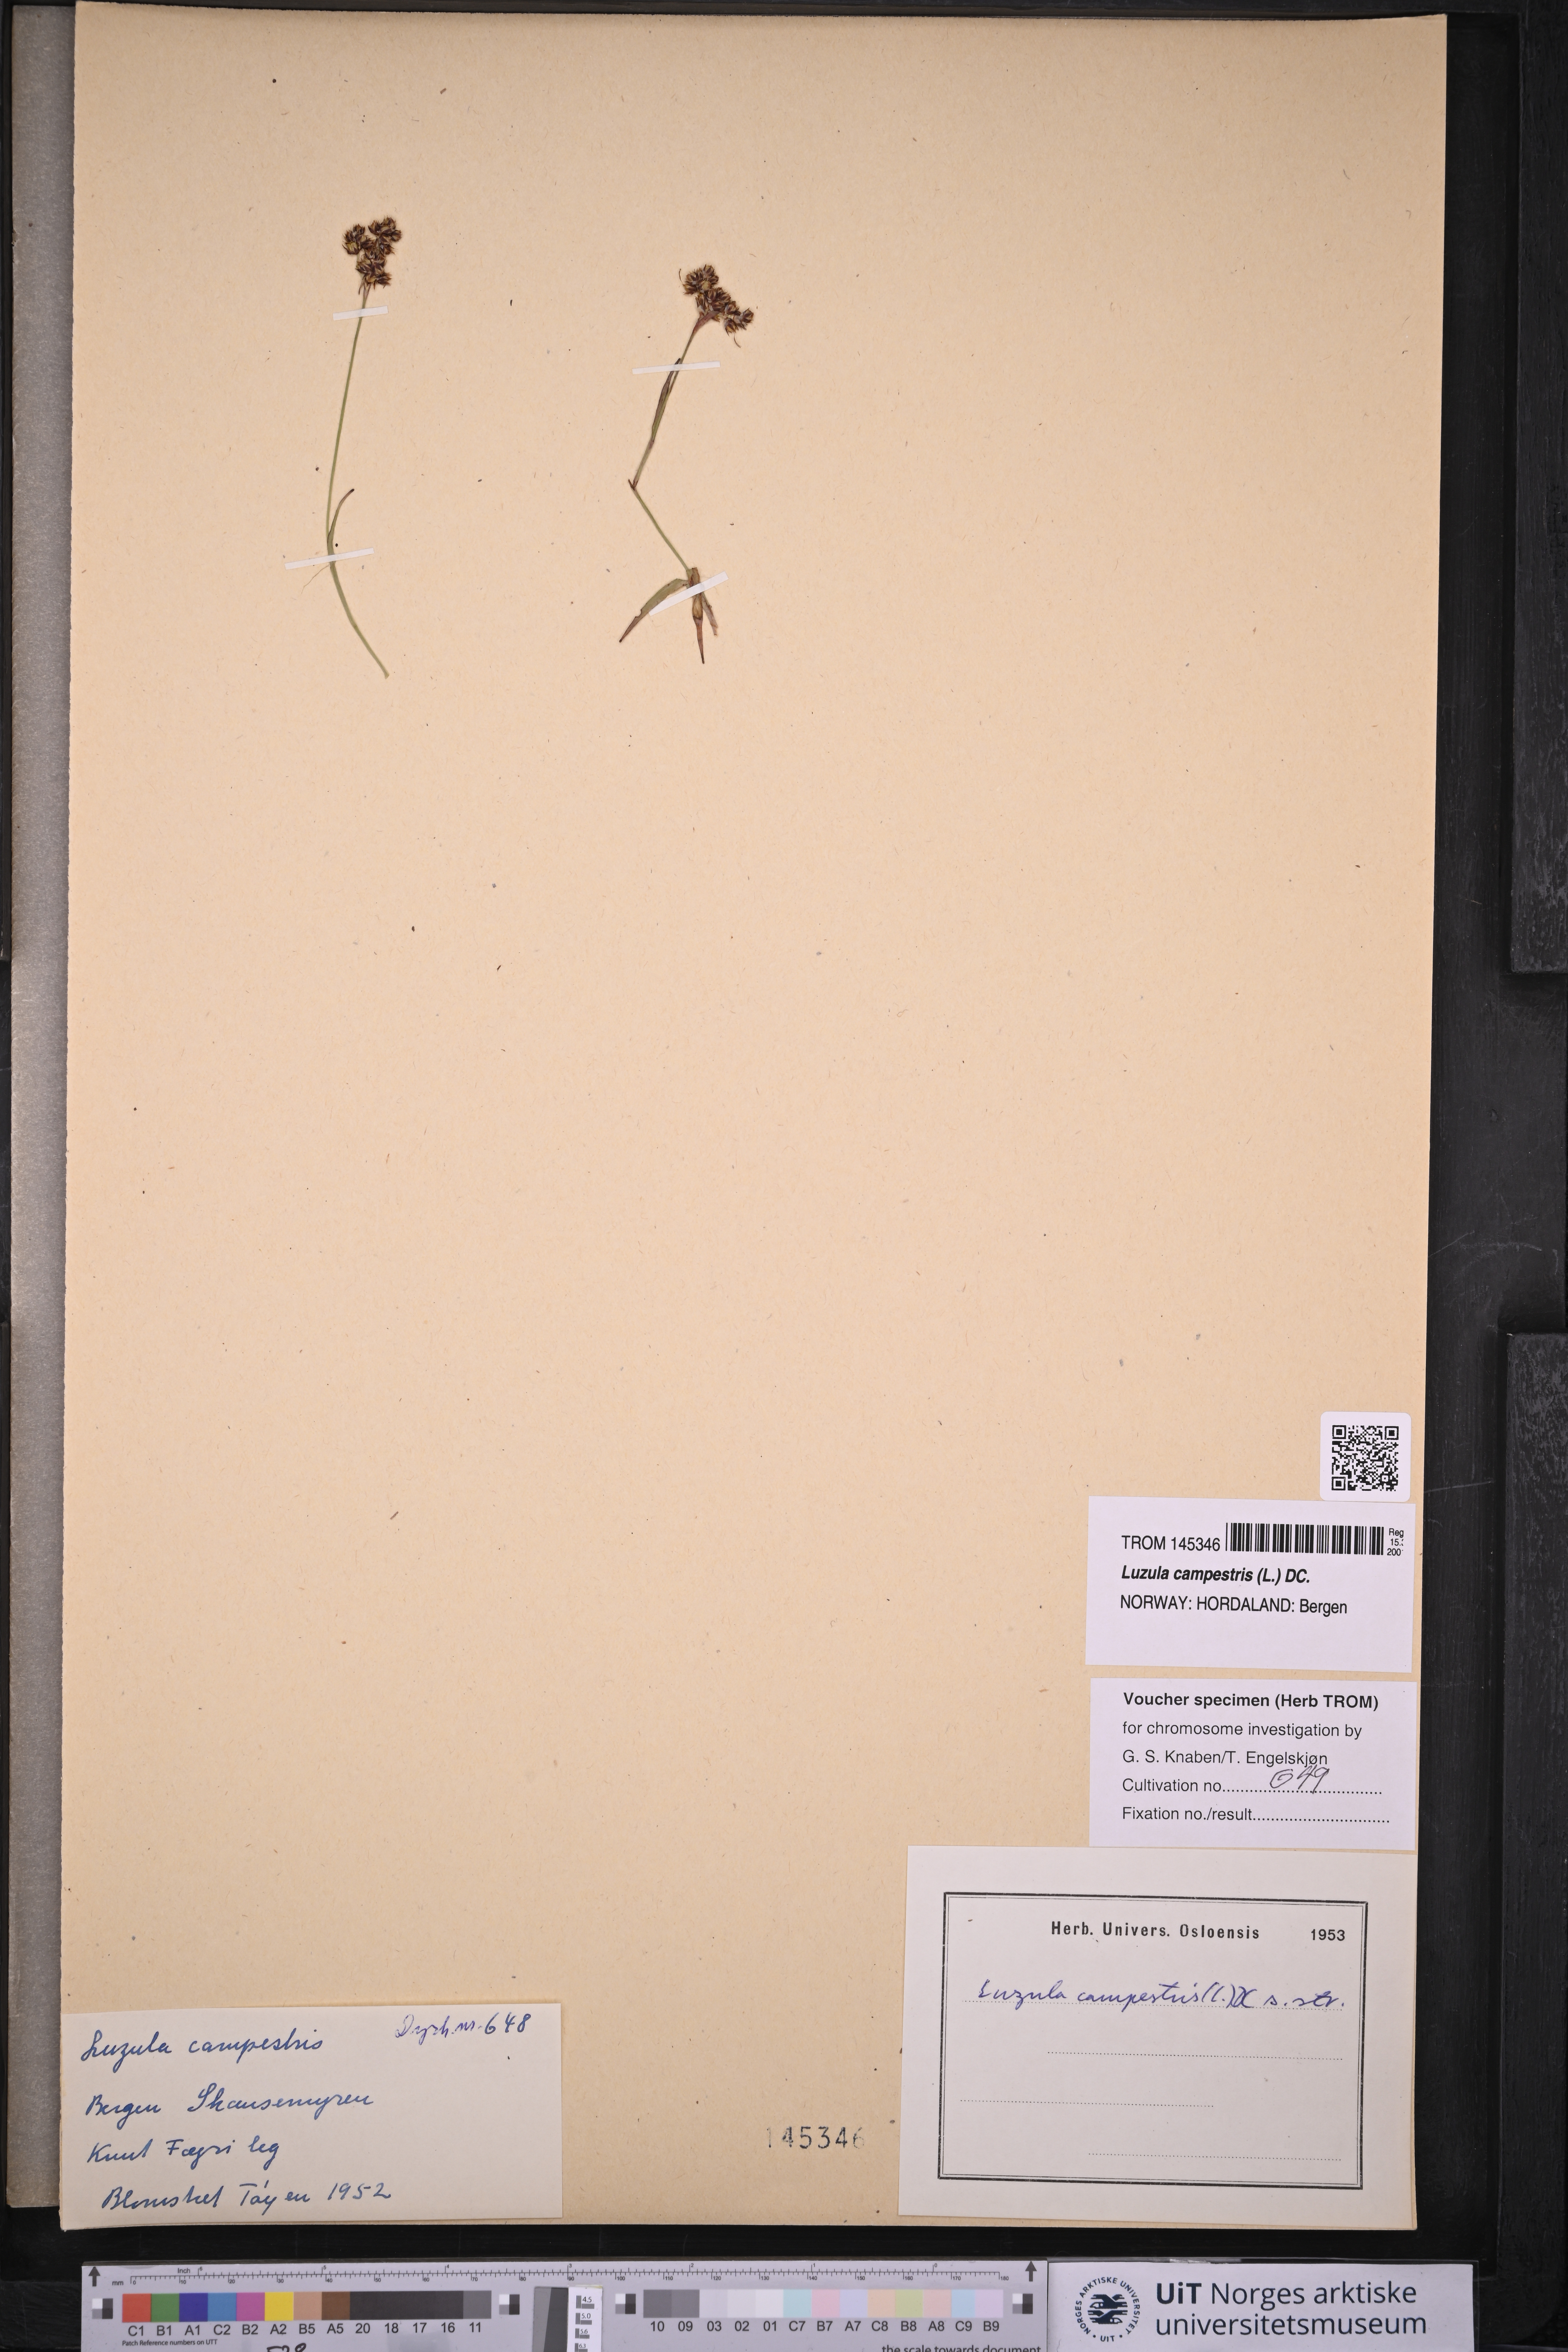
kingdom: Plantae
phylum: Tracheophyta
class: Liliopsida
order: Poales
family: Juncaceae
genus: Luzula
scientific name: Luzula campestris
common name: Field wood-rush
